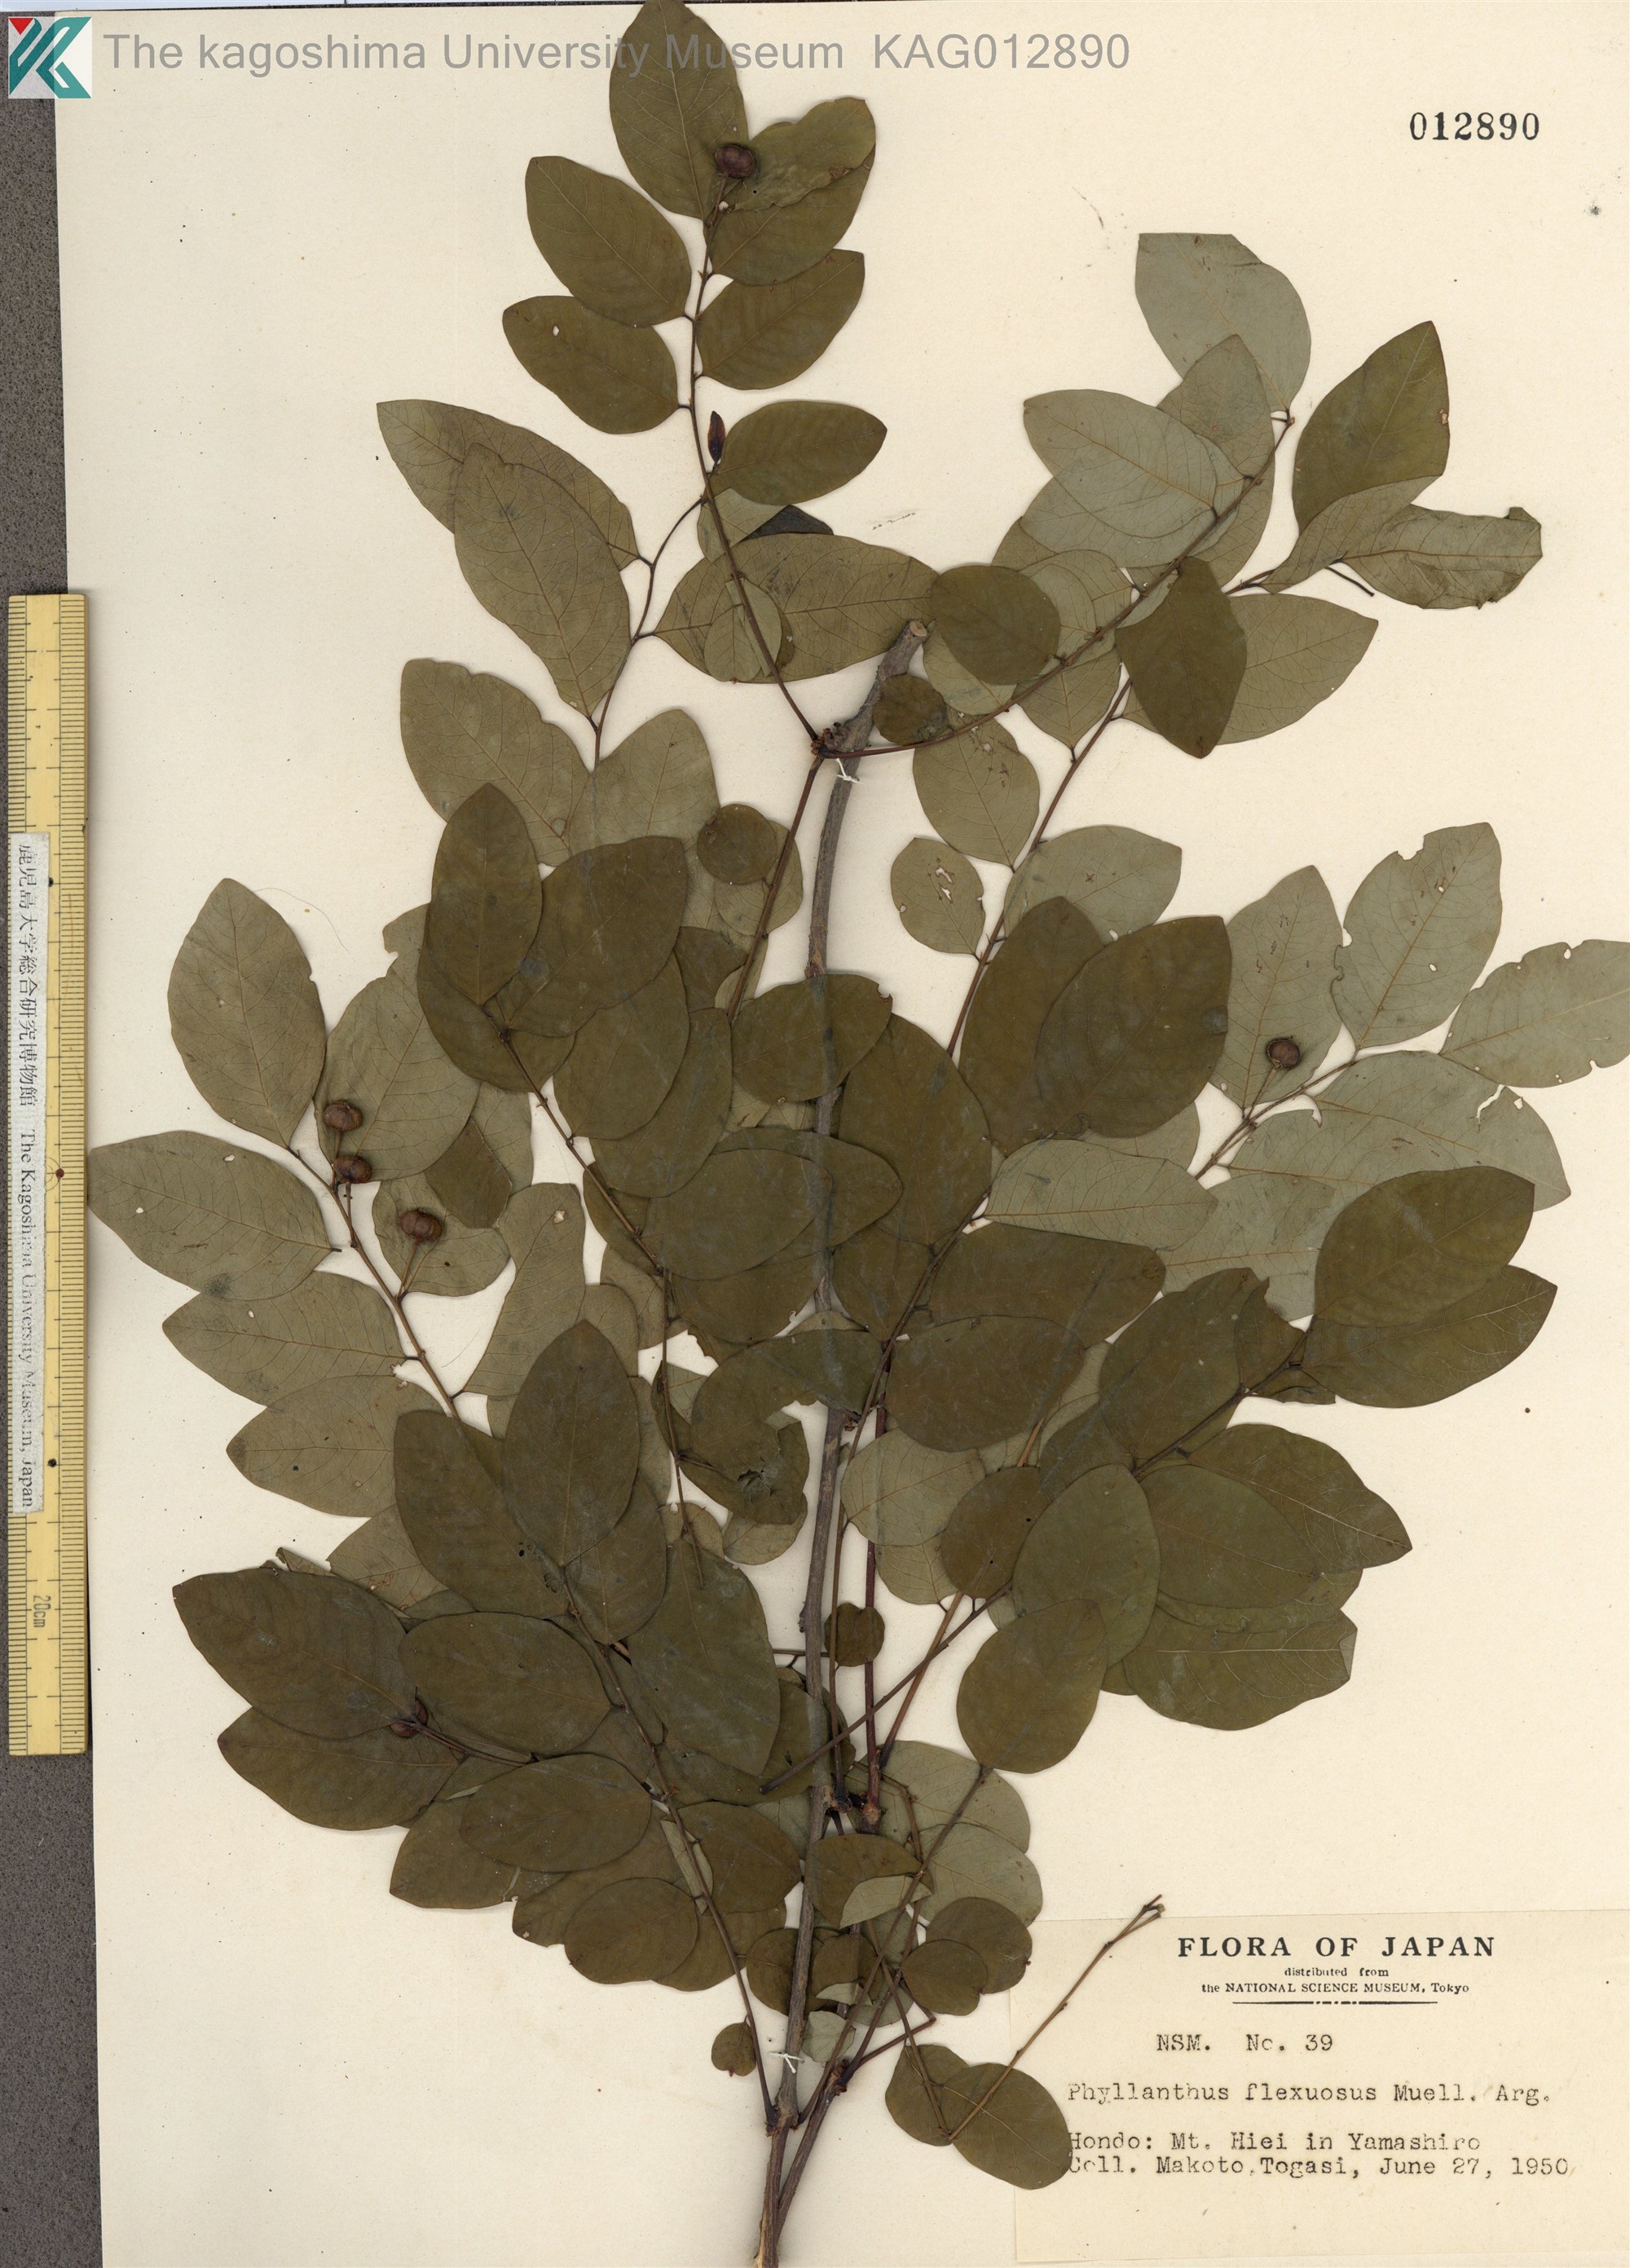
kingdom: Plantae
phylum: Tracheophyta
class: Magnoliopsida
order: Malpighiales
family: Phyllanthaceae
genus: Phyllanthus
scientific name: Phyllanthus flexuosus
